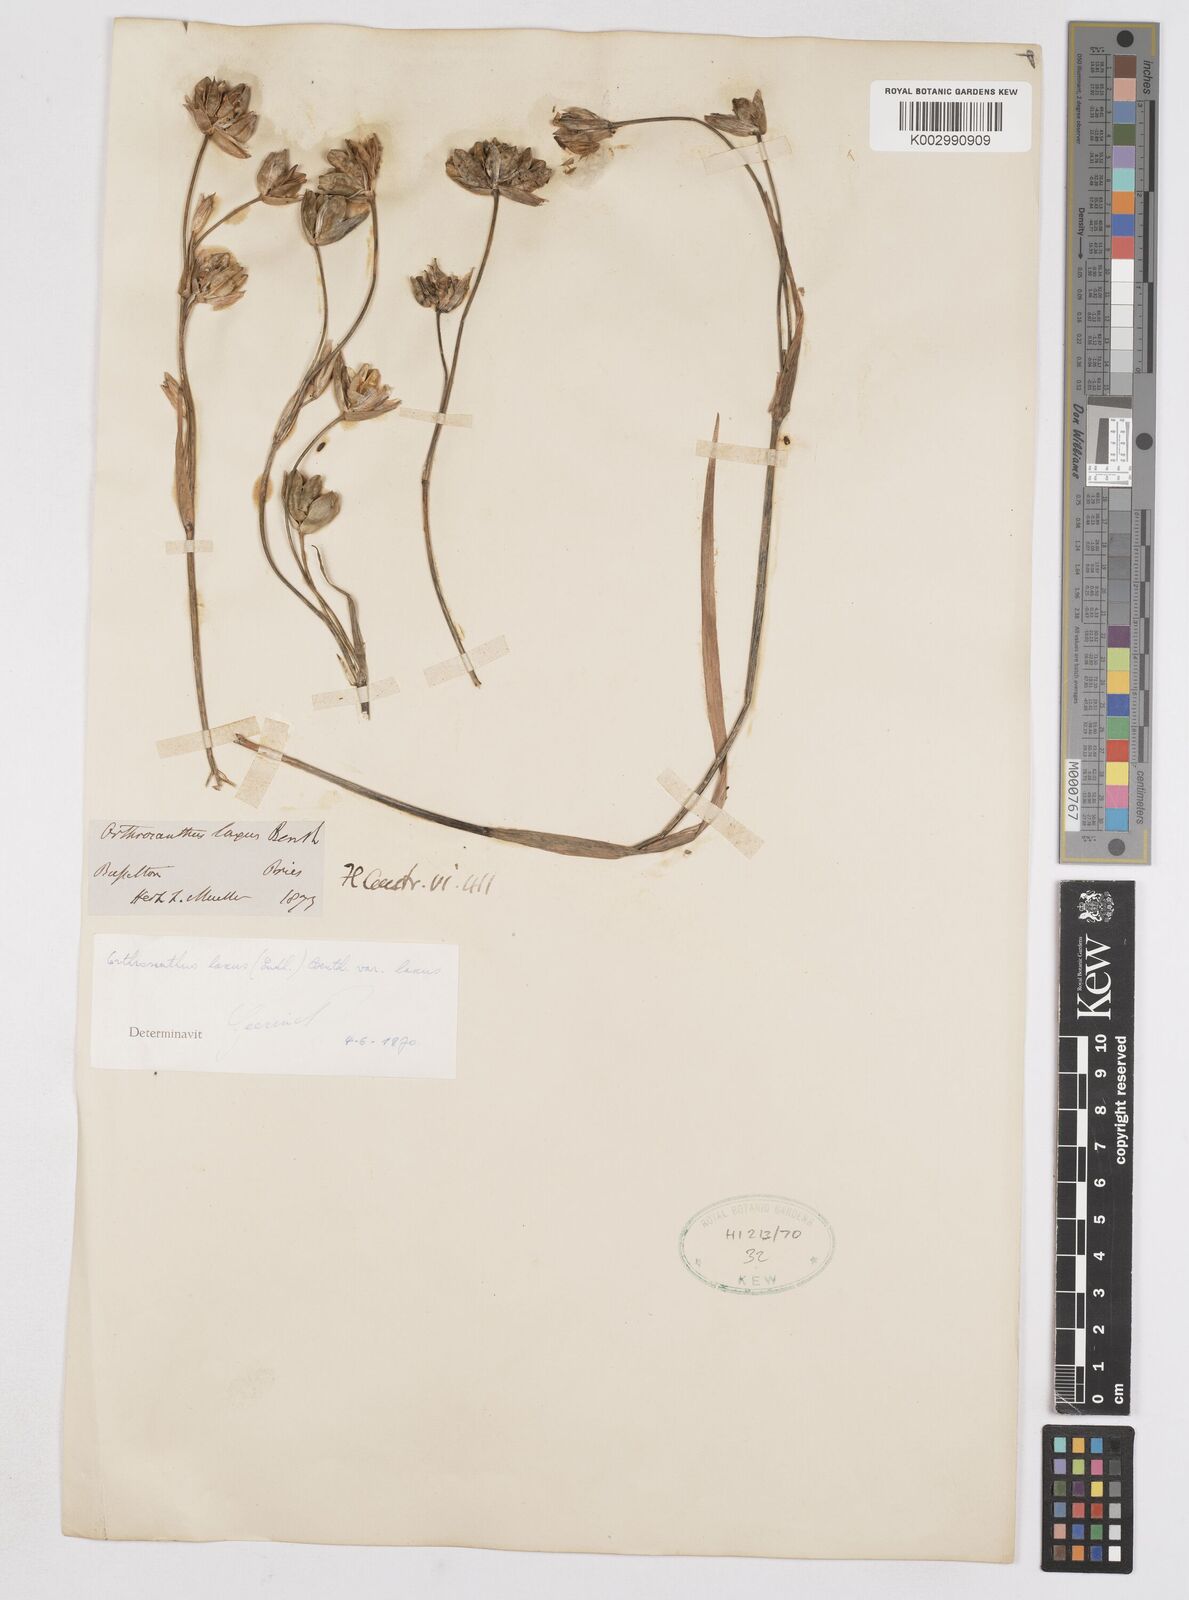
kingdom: Plantae
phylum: Tracheophyta
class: Liliopsida
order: Asparagales
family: Iridaceae
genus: Orthrosanthus
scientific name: Orthrosanthus laxus
